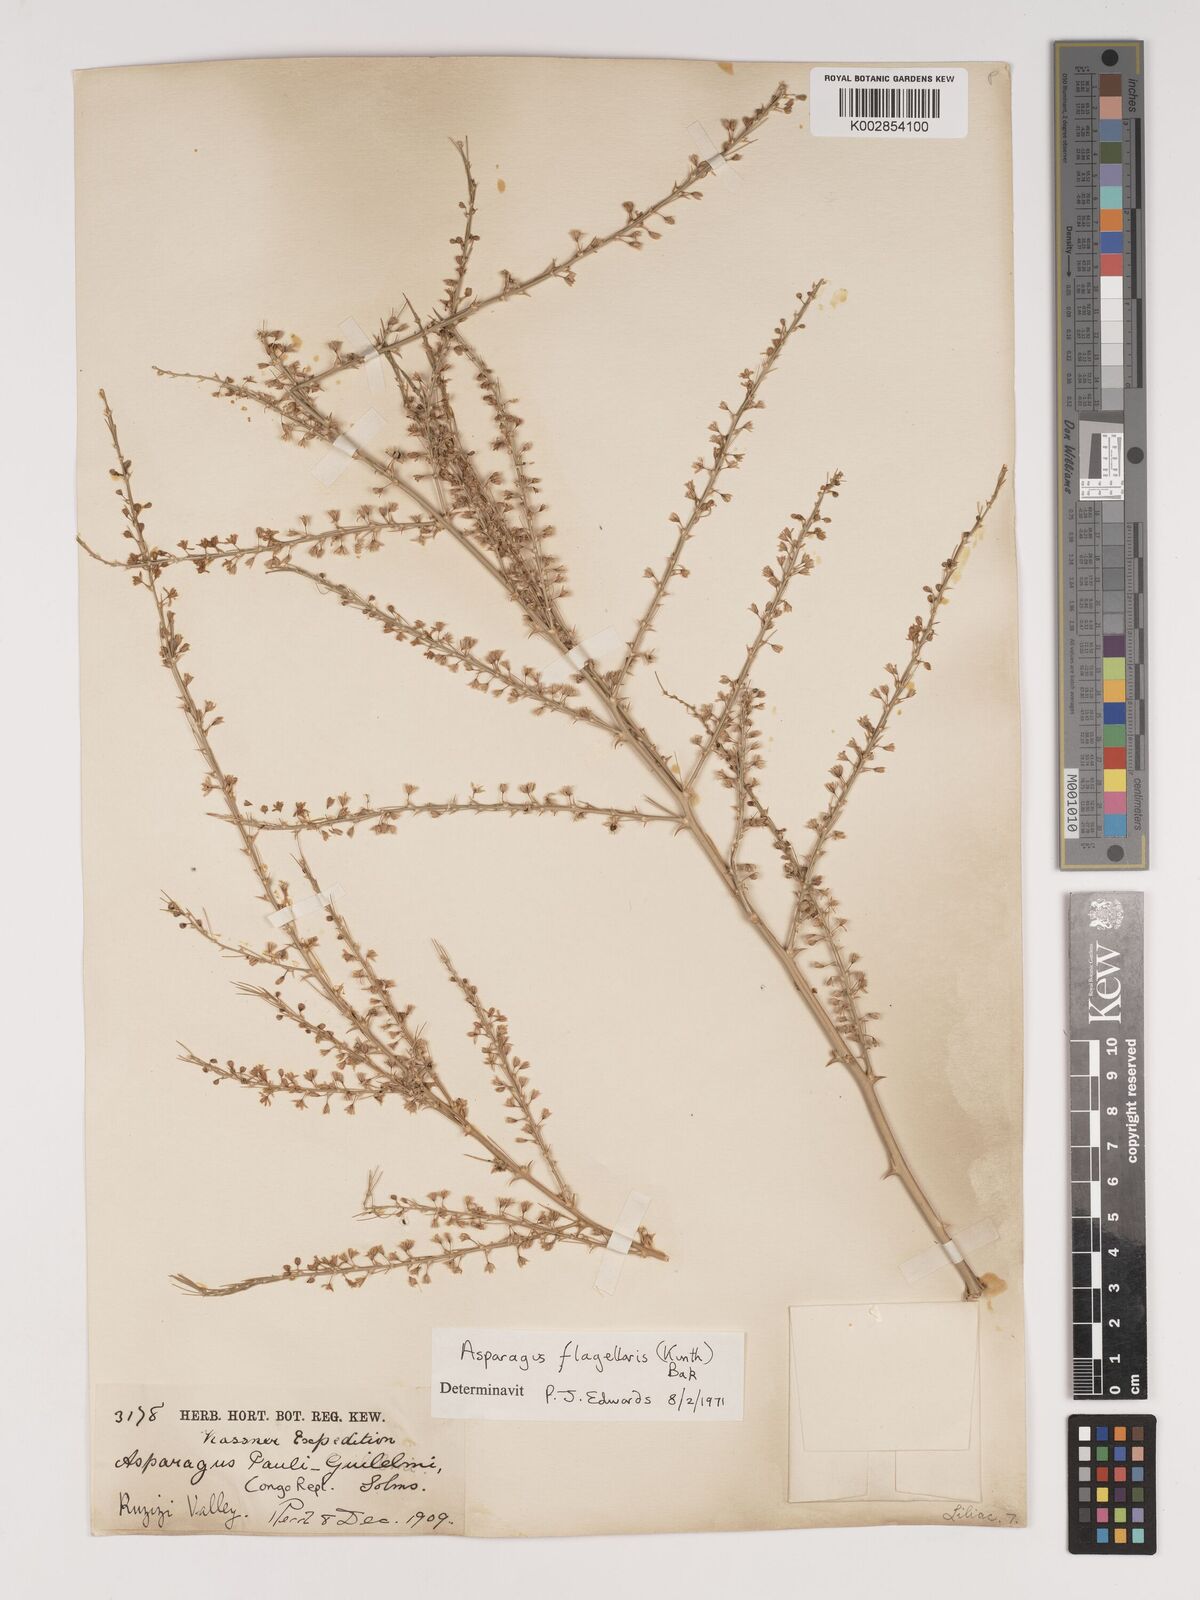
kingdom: Plantae
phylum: Tracheophyta
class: Liliopsida
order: Asparagales
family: Asparagaceae
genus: Asparagus
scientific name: Asparagus flagellaris
